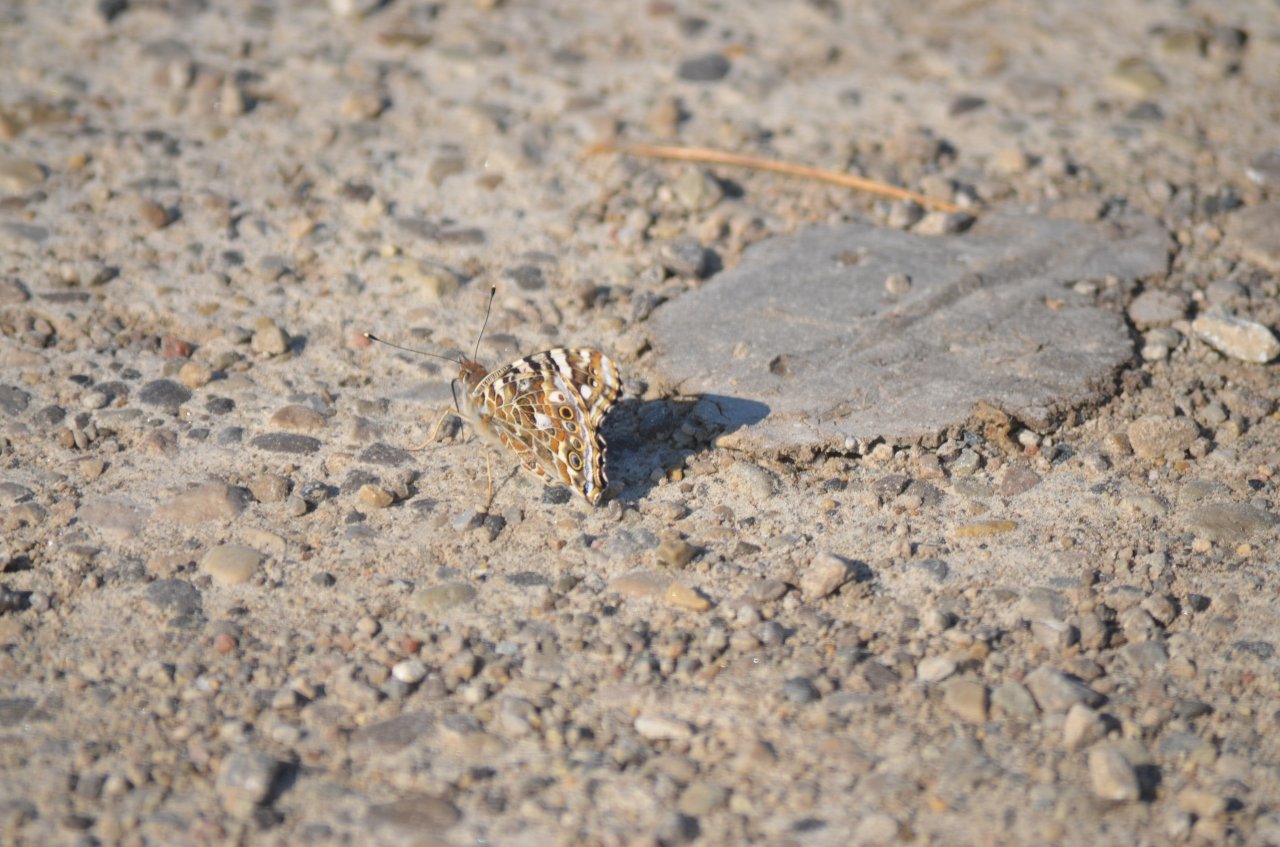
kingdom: Animalia
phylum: Arthropoda
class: Insecta
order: Lepidoptera
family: Nymphalidae
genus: Vanessa
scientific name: Vanessa cardui
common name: Painted Lady
